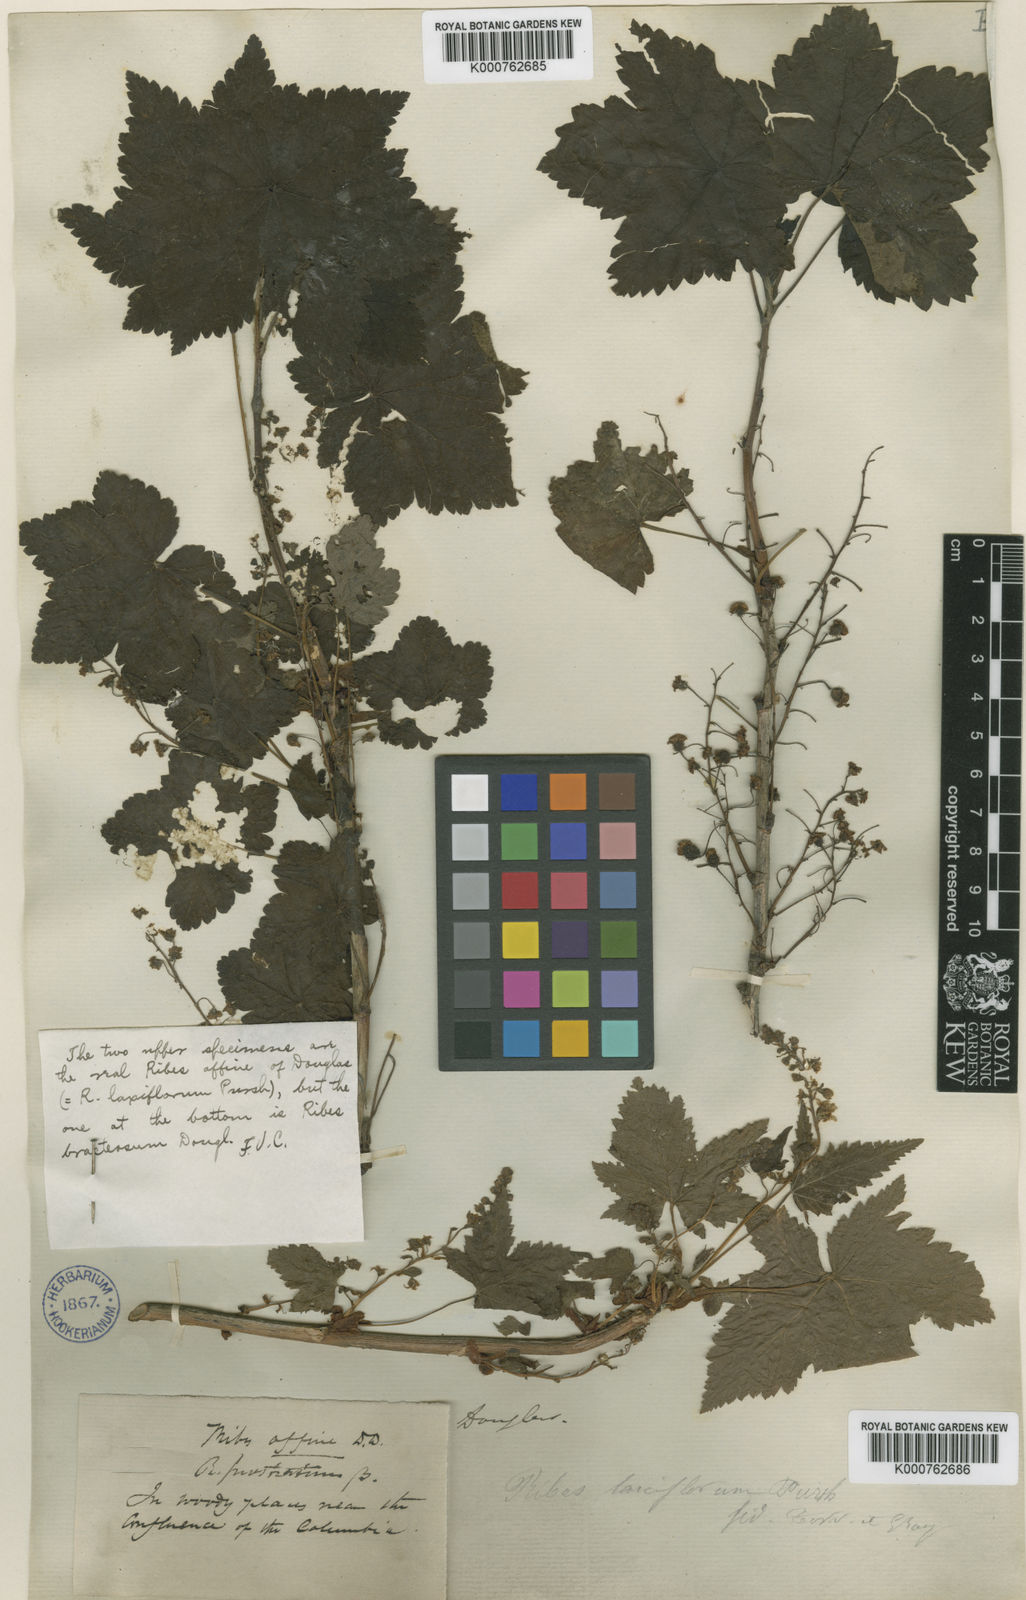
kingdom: Plantae
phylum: Tracheophyta
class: Magnoliopsida
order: Saxifragales
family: Grossulariaceae
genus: Ribes
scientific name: Ribes laxiflorum
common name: Spreading currant
